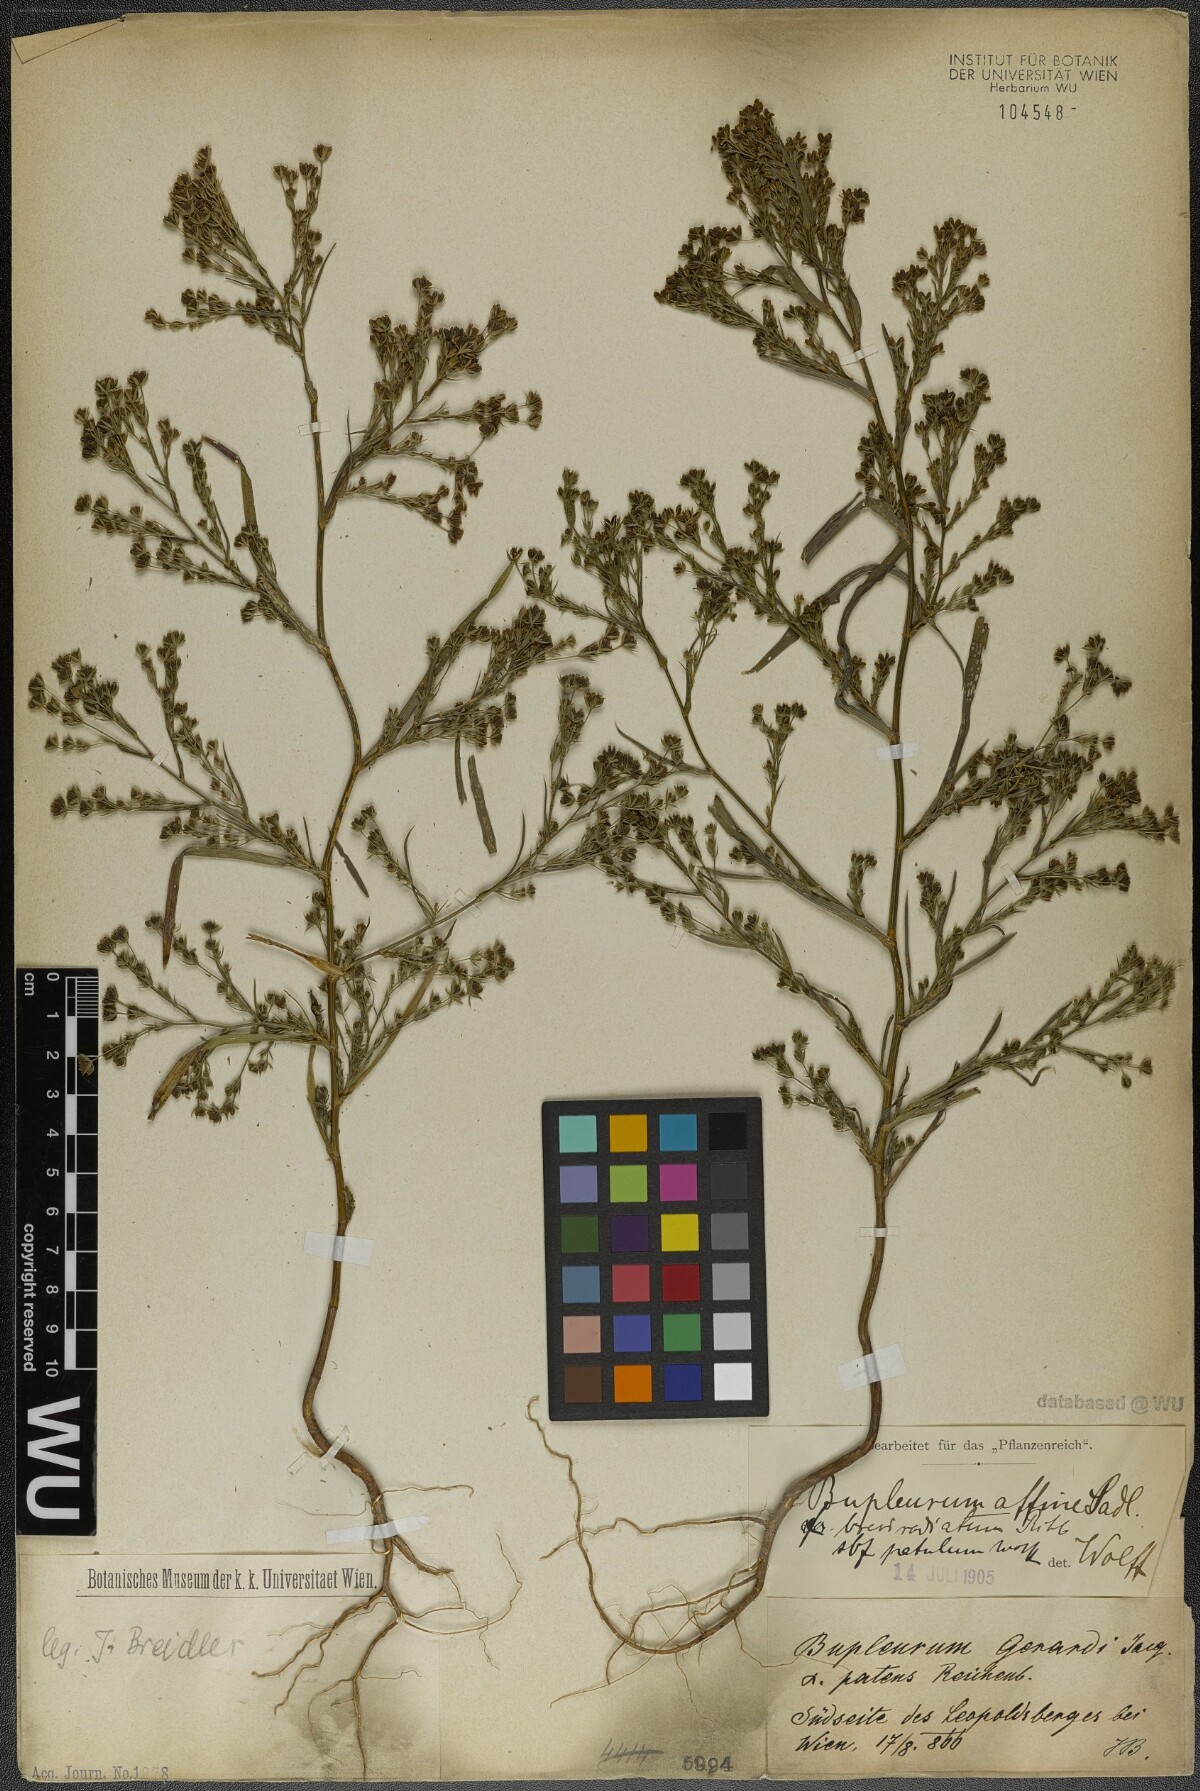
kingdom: Plantae
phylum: Tracheophyta
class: Magnoliopsida
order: Apiales
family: Apiaceae
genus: Bupleurum
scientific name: Bupleurum affine
